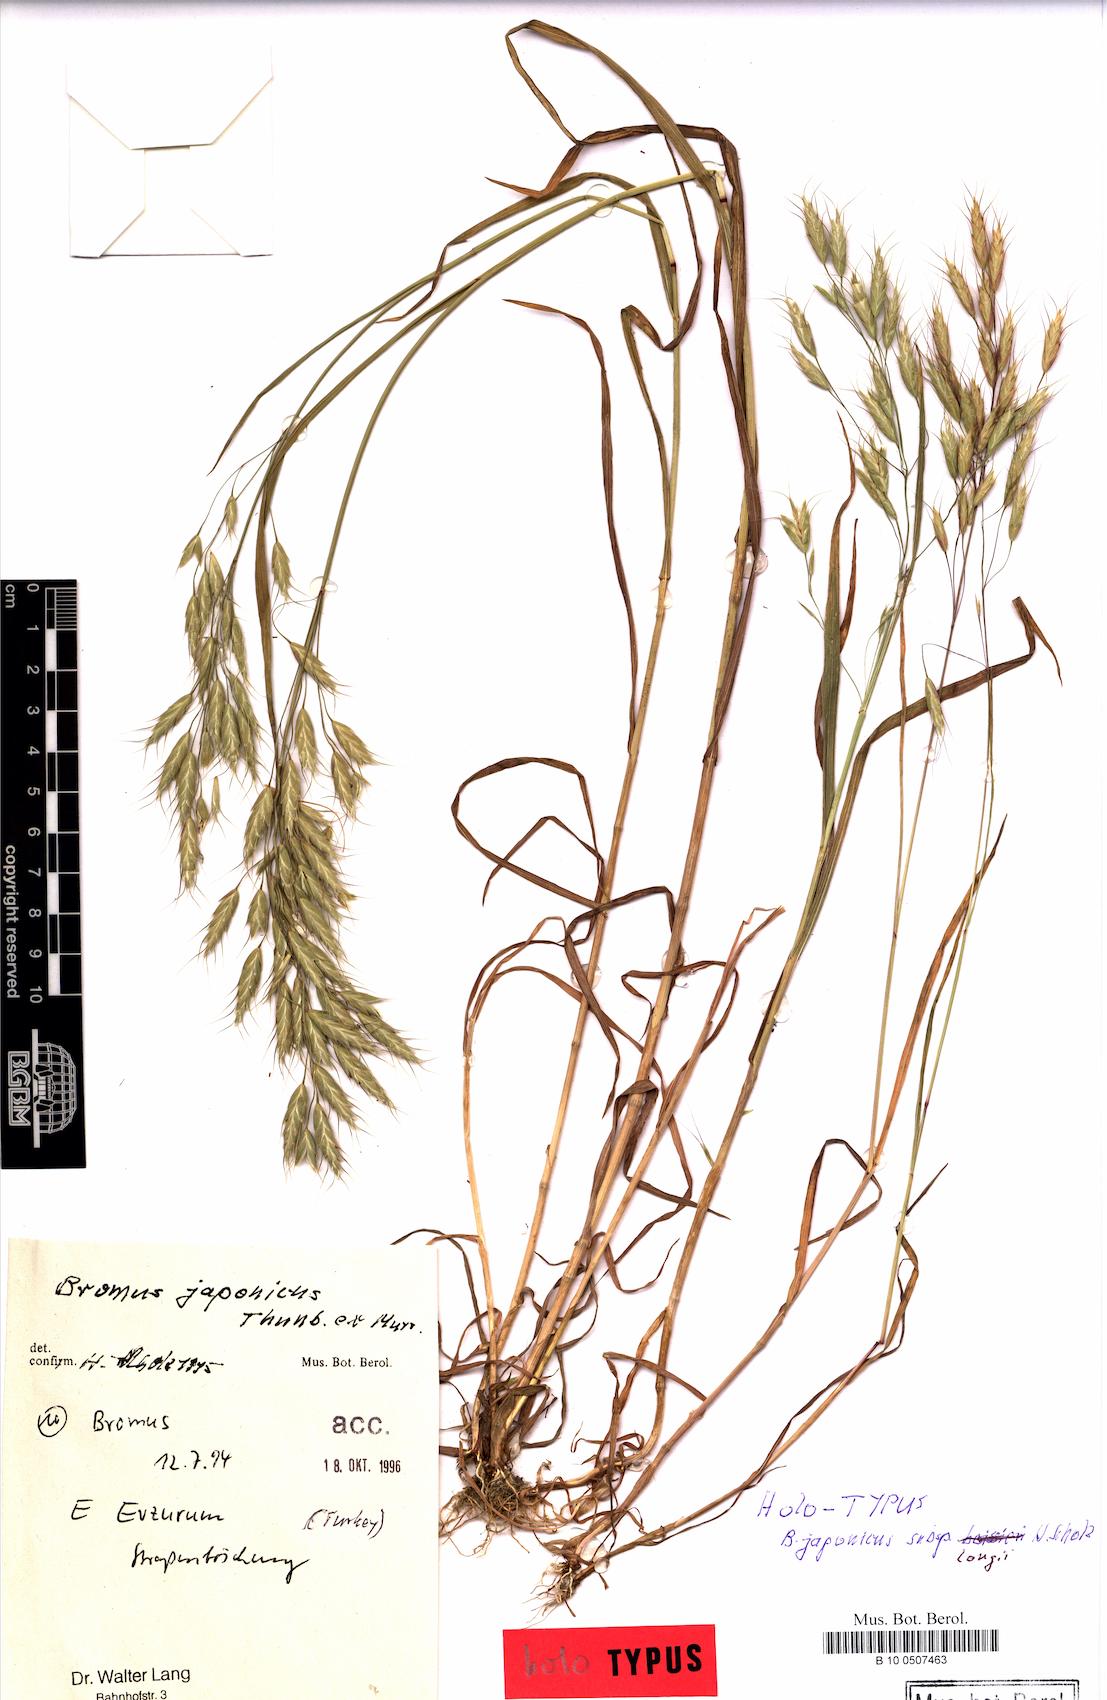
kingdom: Plantae
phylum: Tracheophyta
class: Liliopsida
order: Poales
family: Poaceae
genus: Bromus
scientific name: Bromus japonicus
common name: Japanese brome
